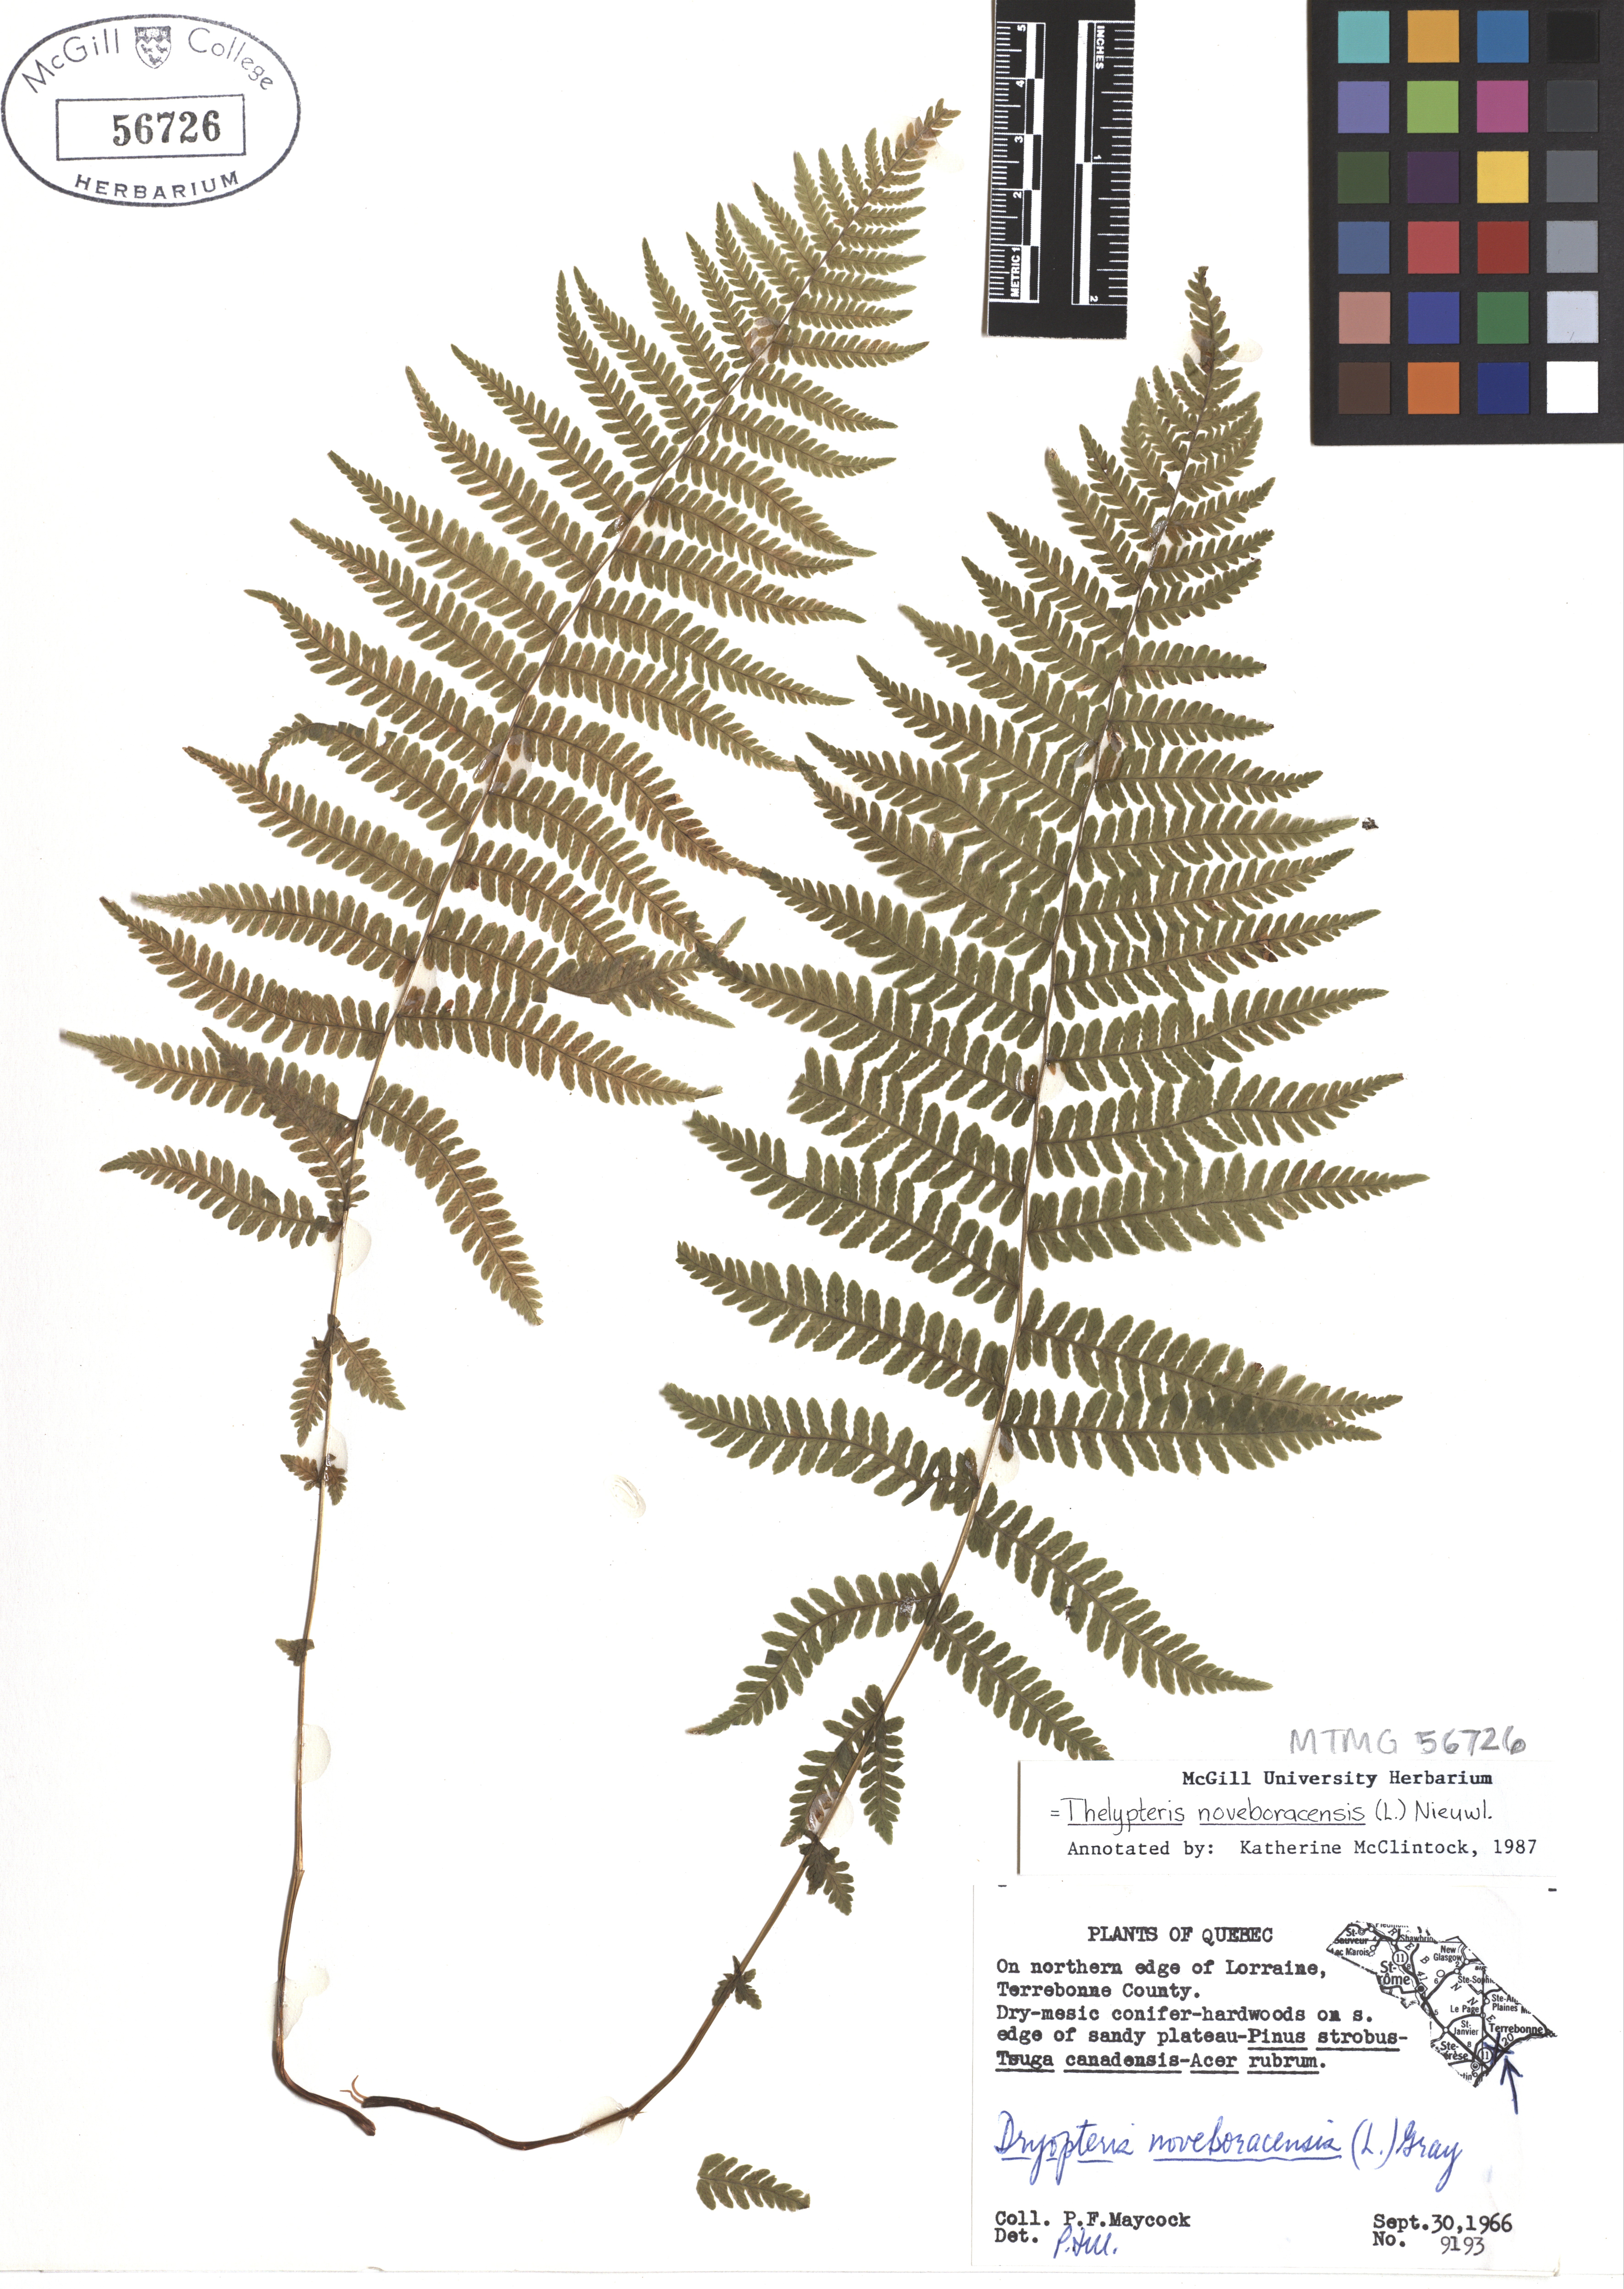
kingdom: Plantae
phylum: Tracheophyta
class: Polypodiopsida
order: Polypodiales
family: Thelypteridaceae
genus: Amauropelta
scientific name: Amauropelta noveboracensis
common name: New york fern
